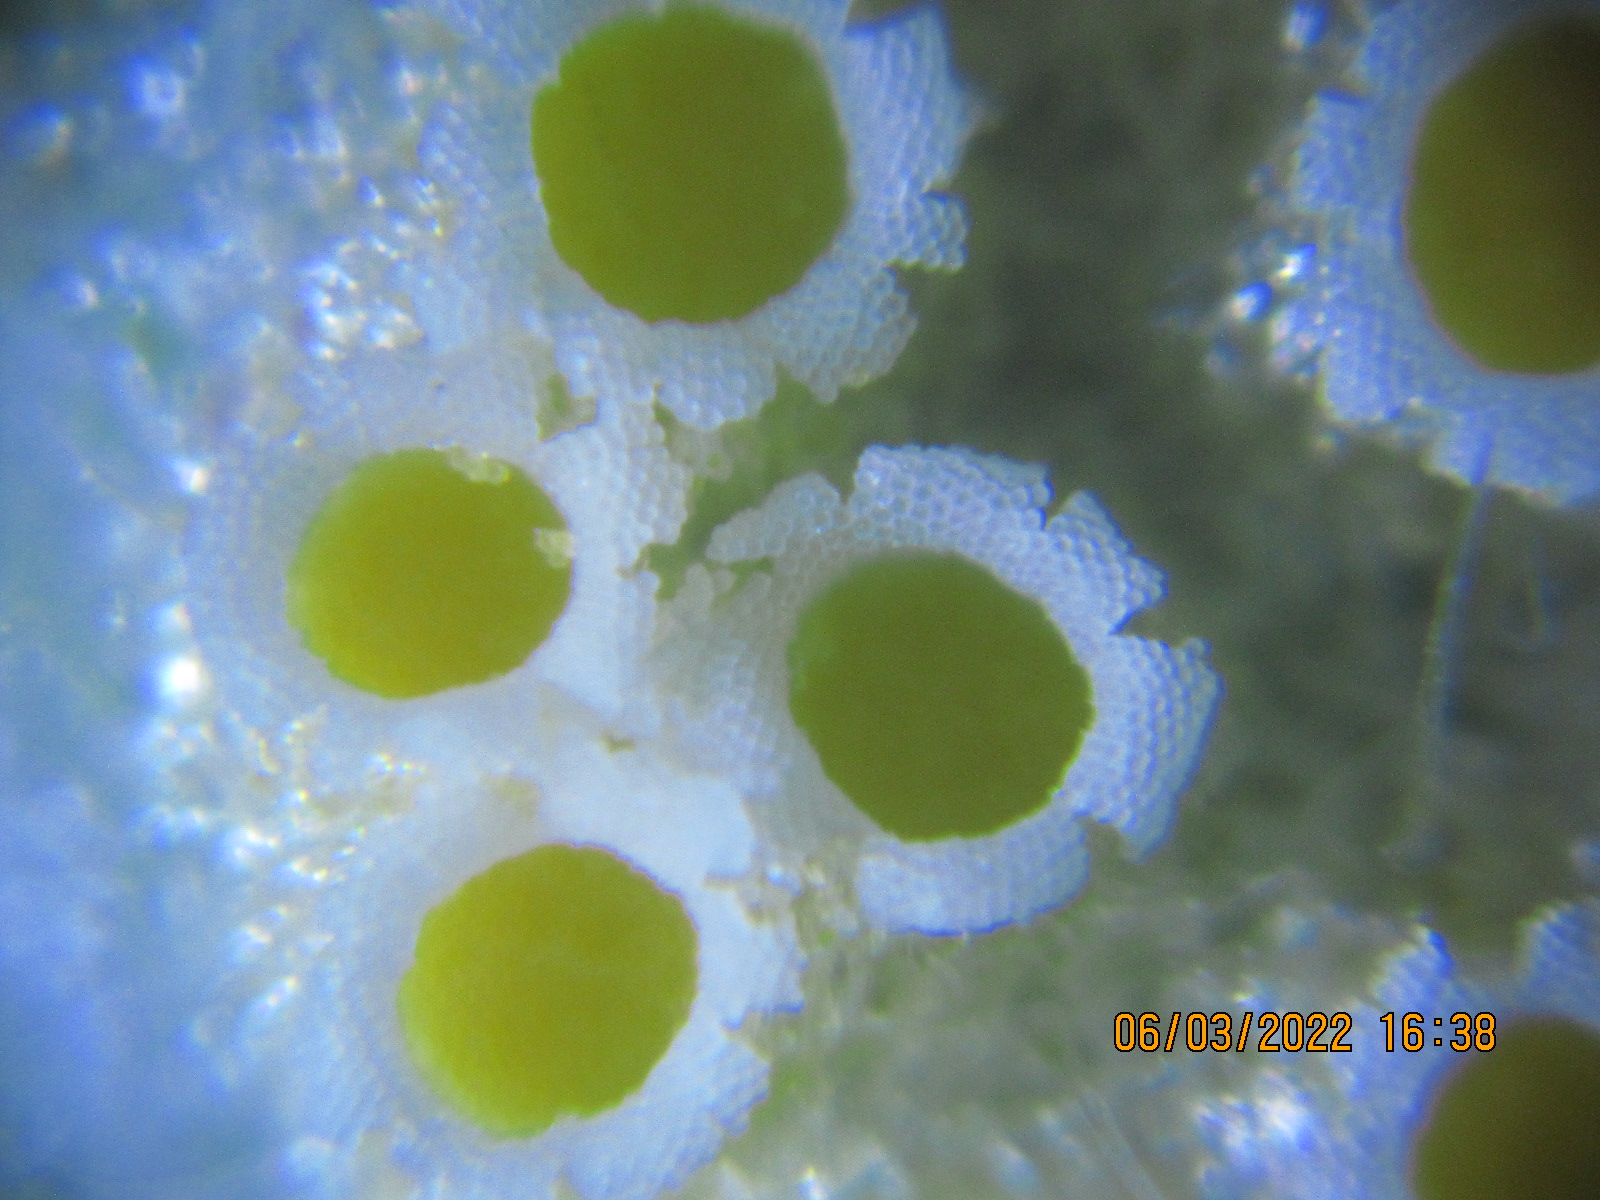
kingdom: Fungi
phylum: Basidiomycota
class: Pucciniomycetes
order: Pucciniales
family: Pucciniaceae
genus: Puccinia
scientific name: Puccinia urticata
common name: nældegalle-tvecellerust
